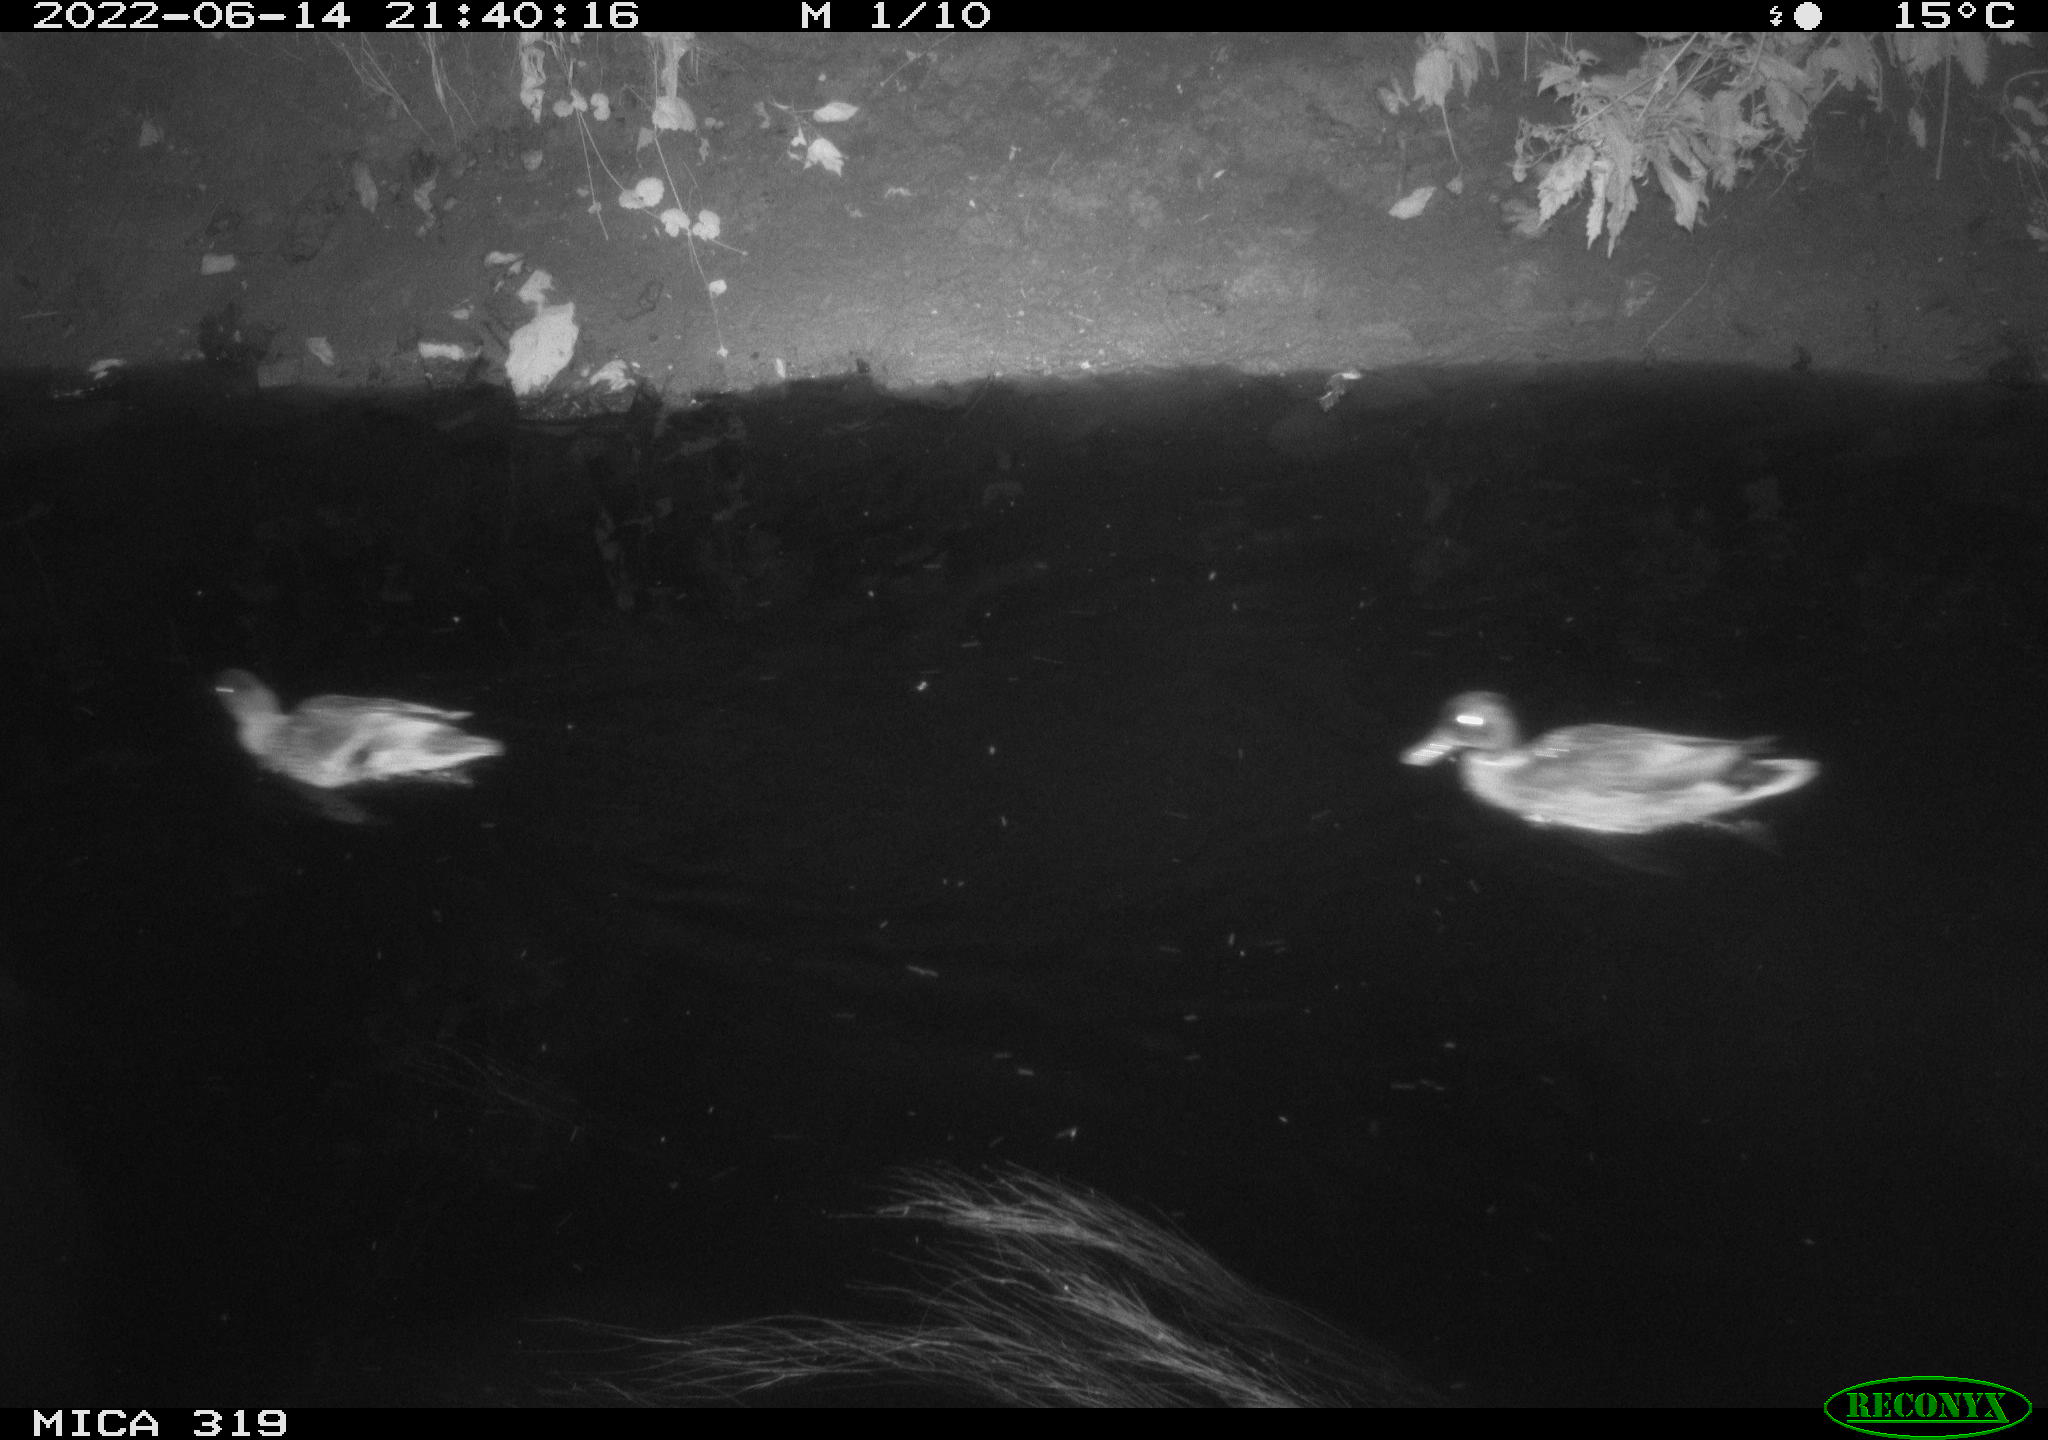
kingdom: Animalia
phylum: Chordata
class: Aves
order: Anseriformes
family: Anatidae
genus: Anas
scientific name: Anas
